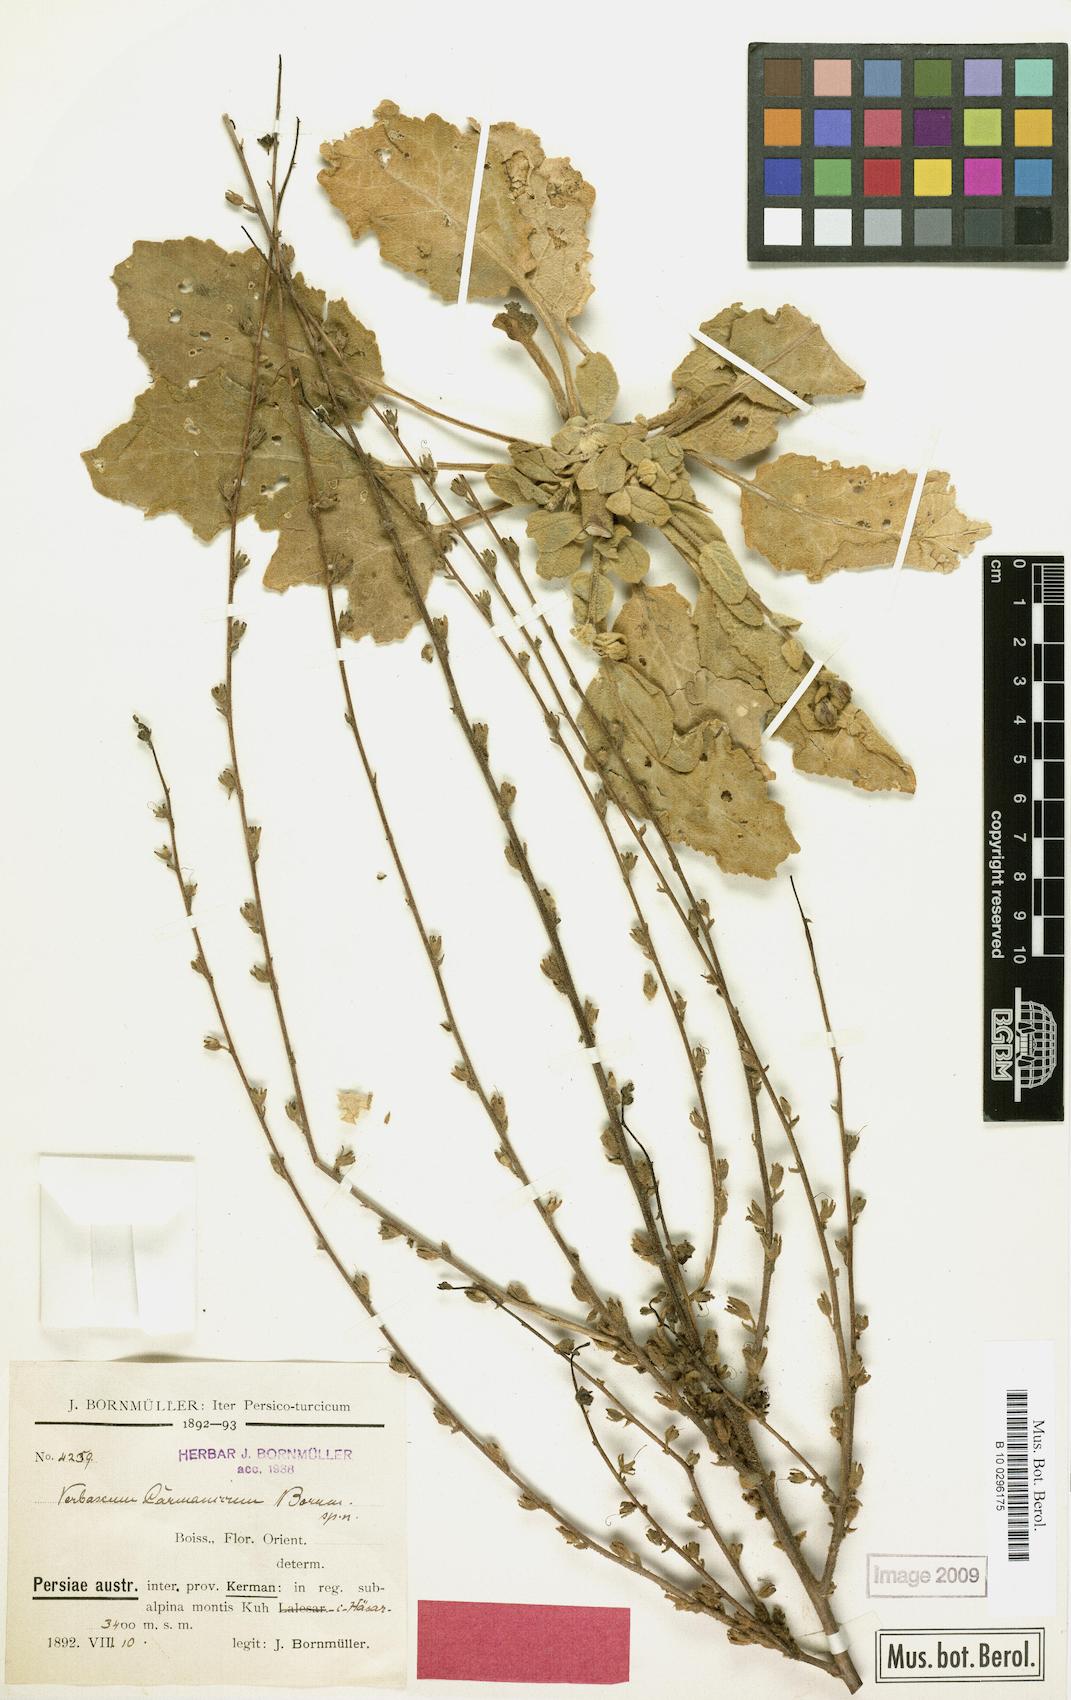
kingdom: Plantae
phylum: Tracheophyta
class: Magnoliopsida
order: Lamiales
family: Scrophulariaceae
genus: Verbascum
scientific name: Verbascum carmanicum
